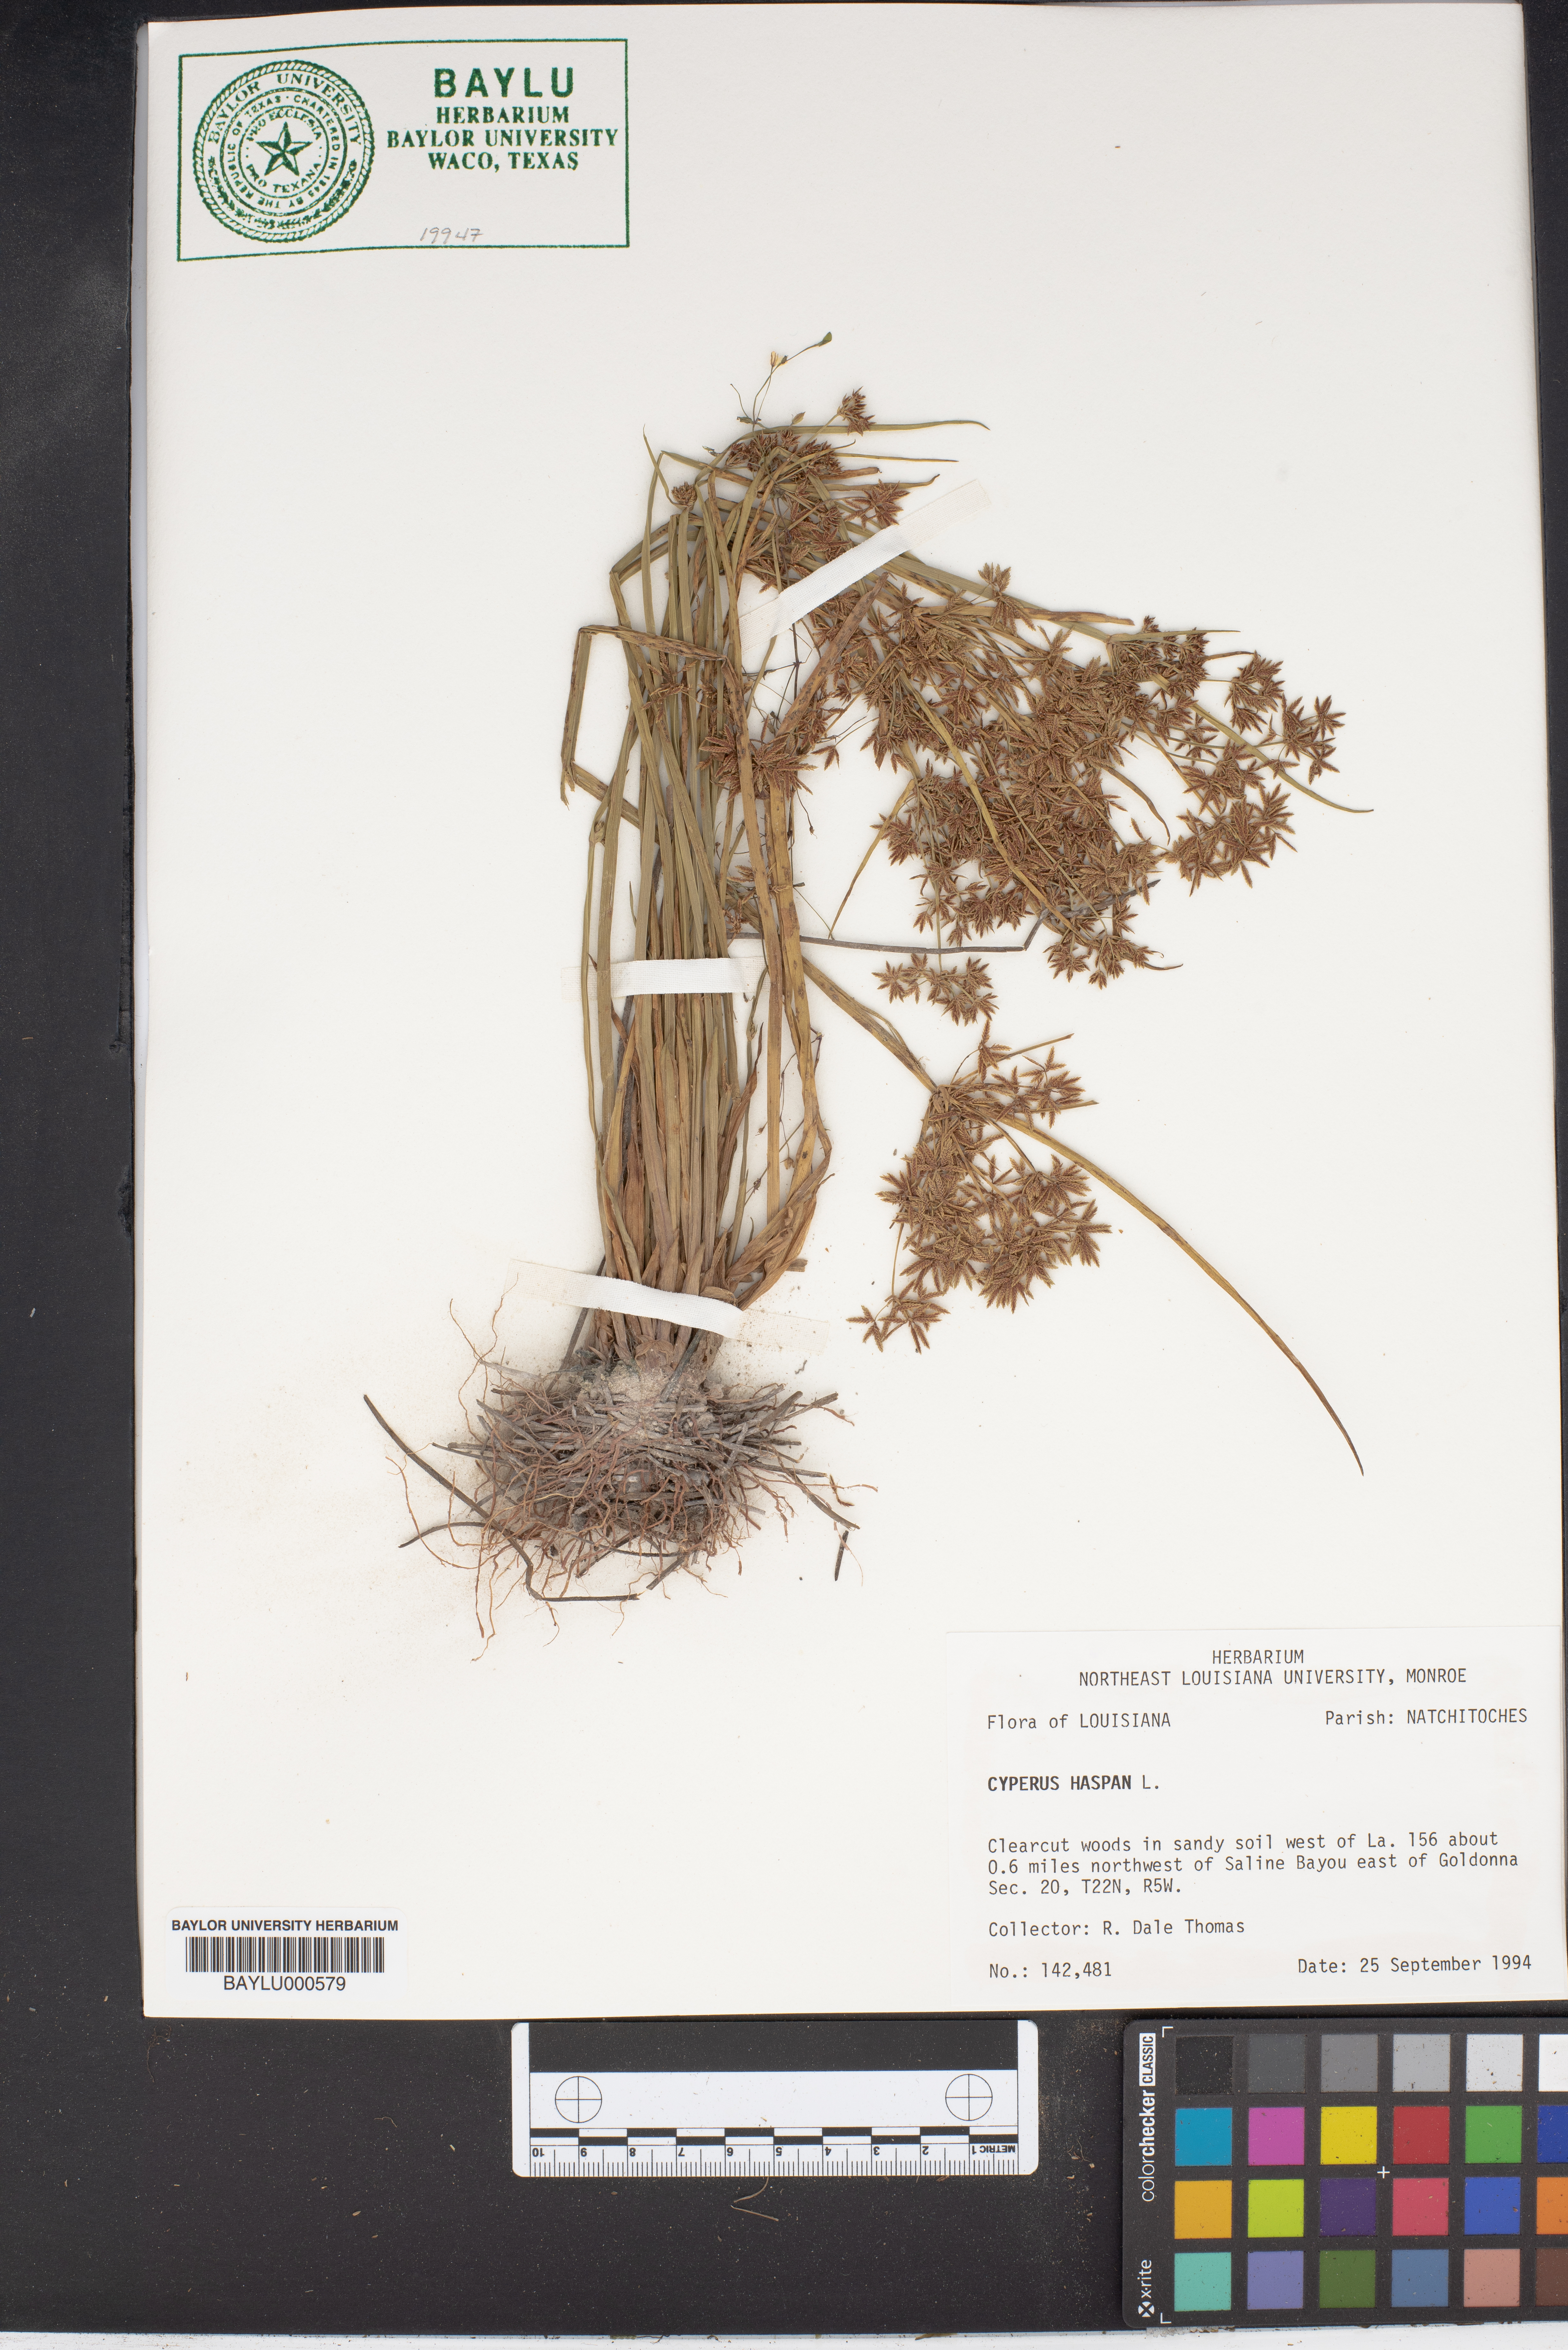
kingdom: Plantae
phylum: Tracheophyta
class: Liliopsida
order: Poales
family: Cyperaceae
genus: Cyperus
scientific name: Cyperus haspan
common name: Haspan flatsedge
